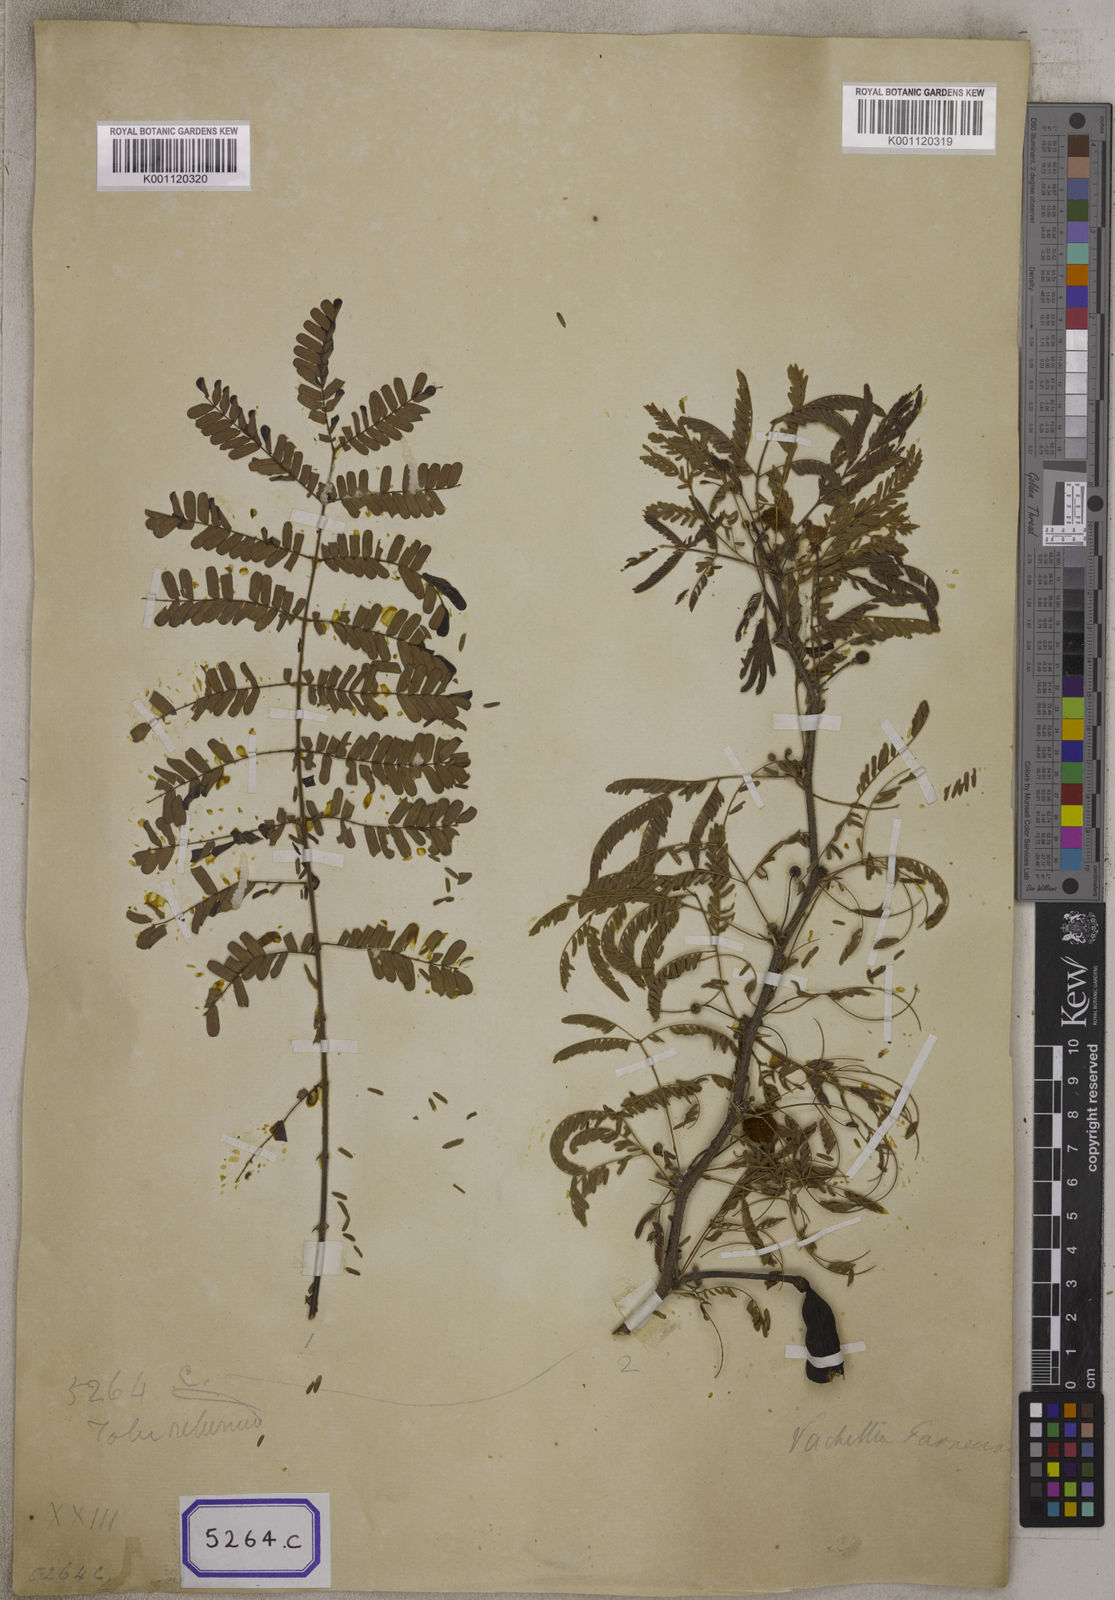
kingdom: Plantae
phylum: Tracheophyta
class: Magnoliopsida
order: Fabales
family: Fabaceae
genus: Vachellia
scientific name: Vachellia farnesiana
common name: Sweet acacia
